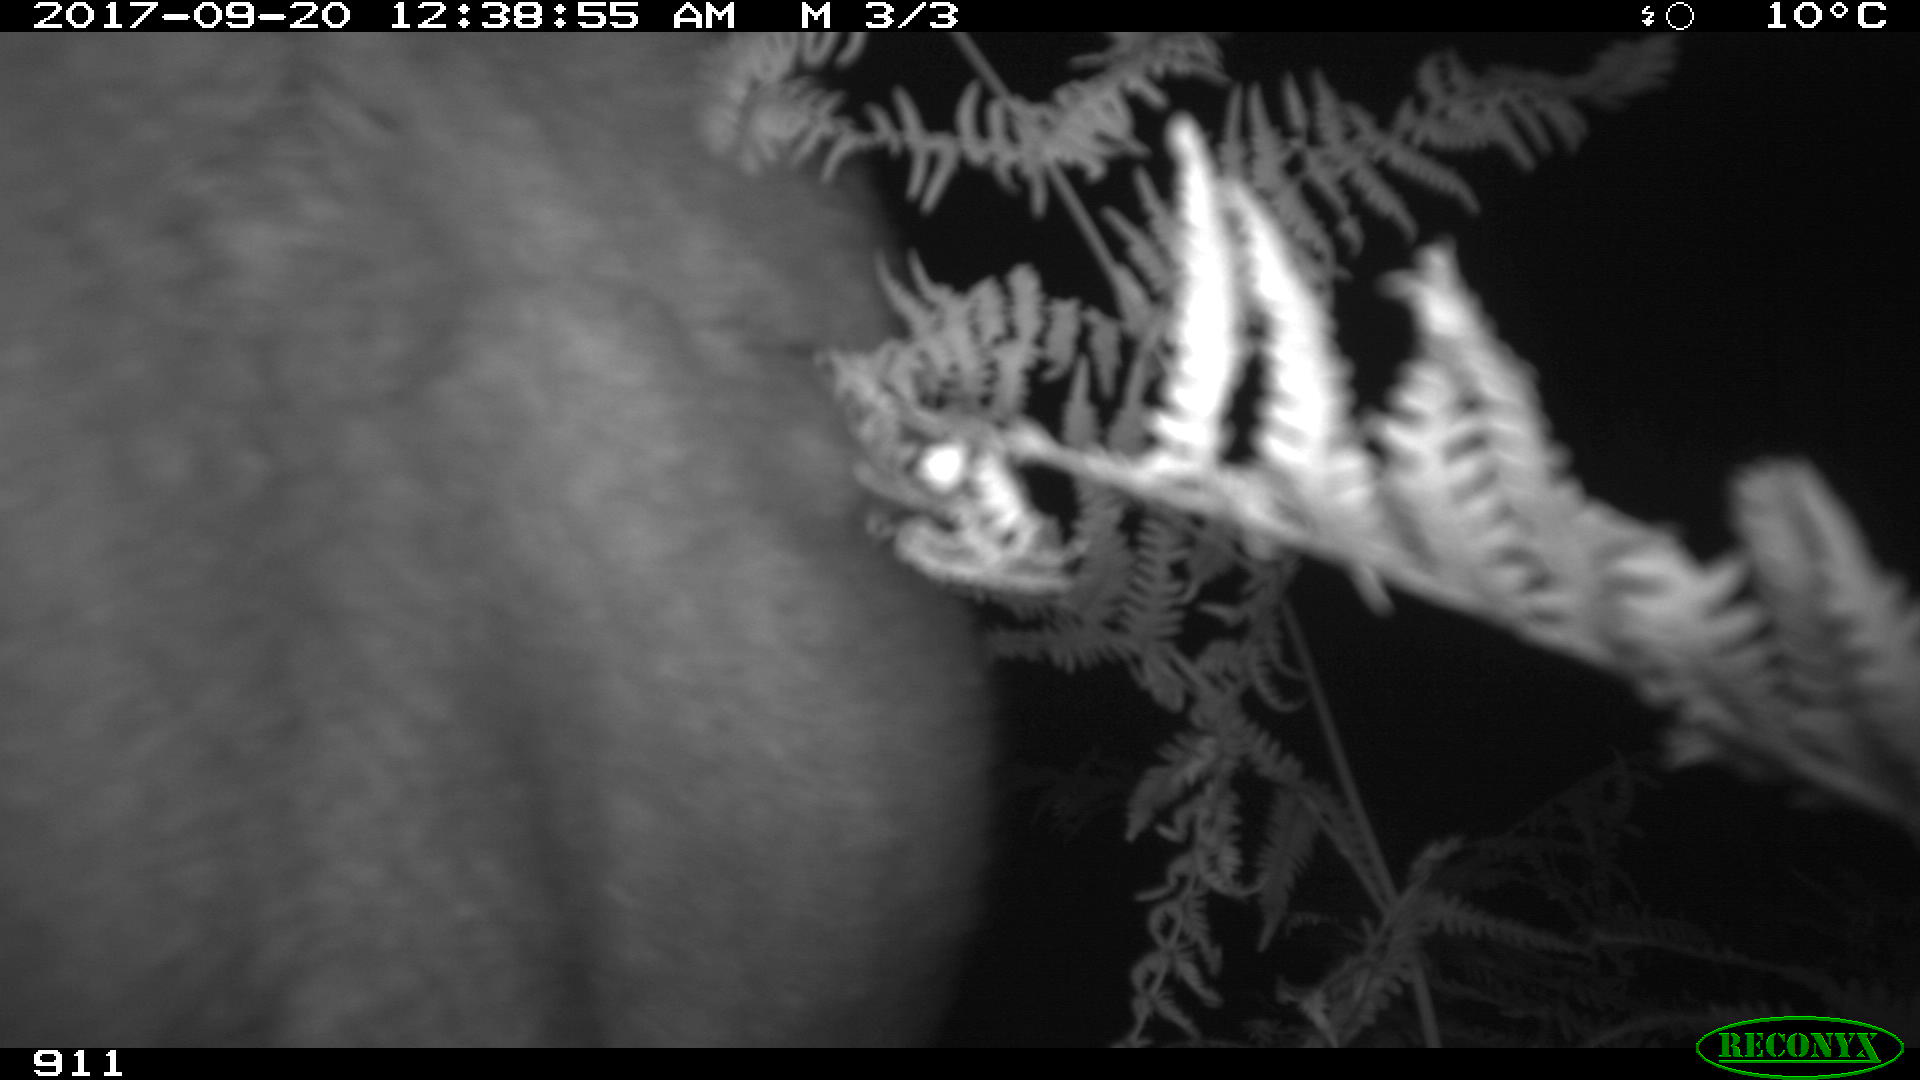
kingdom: Animalia
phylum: Chordata
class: Mammalia
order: Perissodactyla
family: Equidae
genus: Equus
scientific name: Equus caballus
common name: Horse
